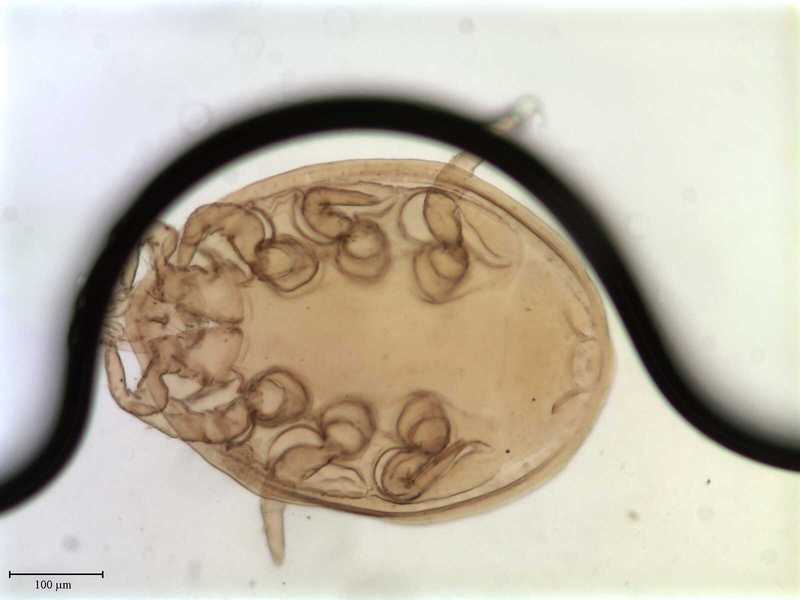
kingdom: Animalia
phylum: Arthropoda
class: Arachnida
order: Mesostigmata
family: Uropodidae
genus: Uropoda
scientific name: Uropoda
